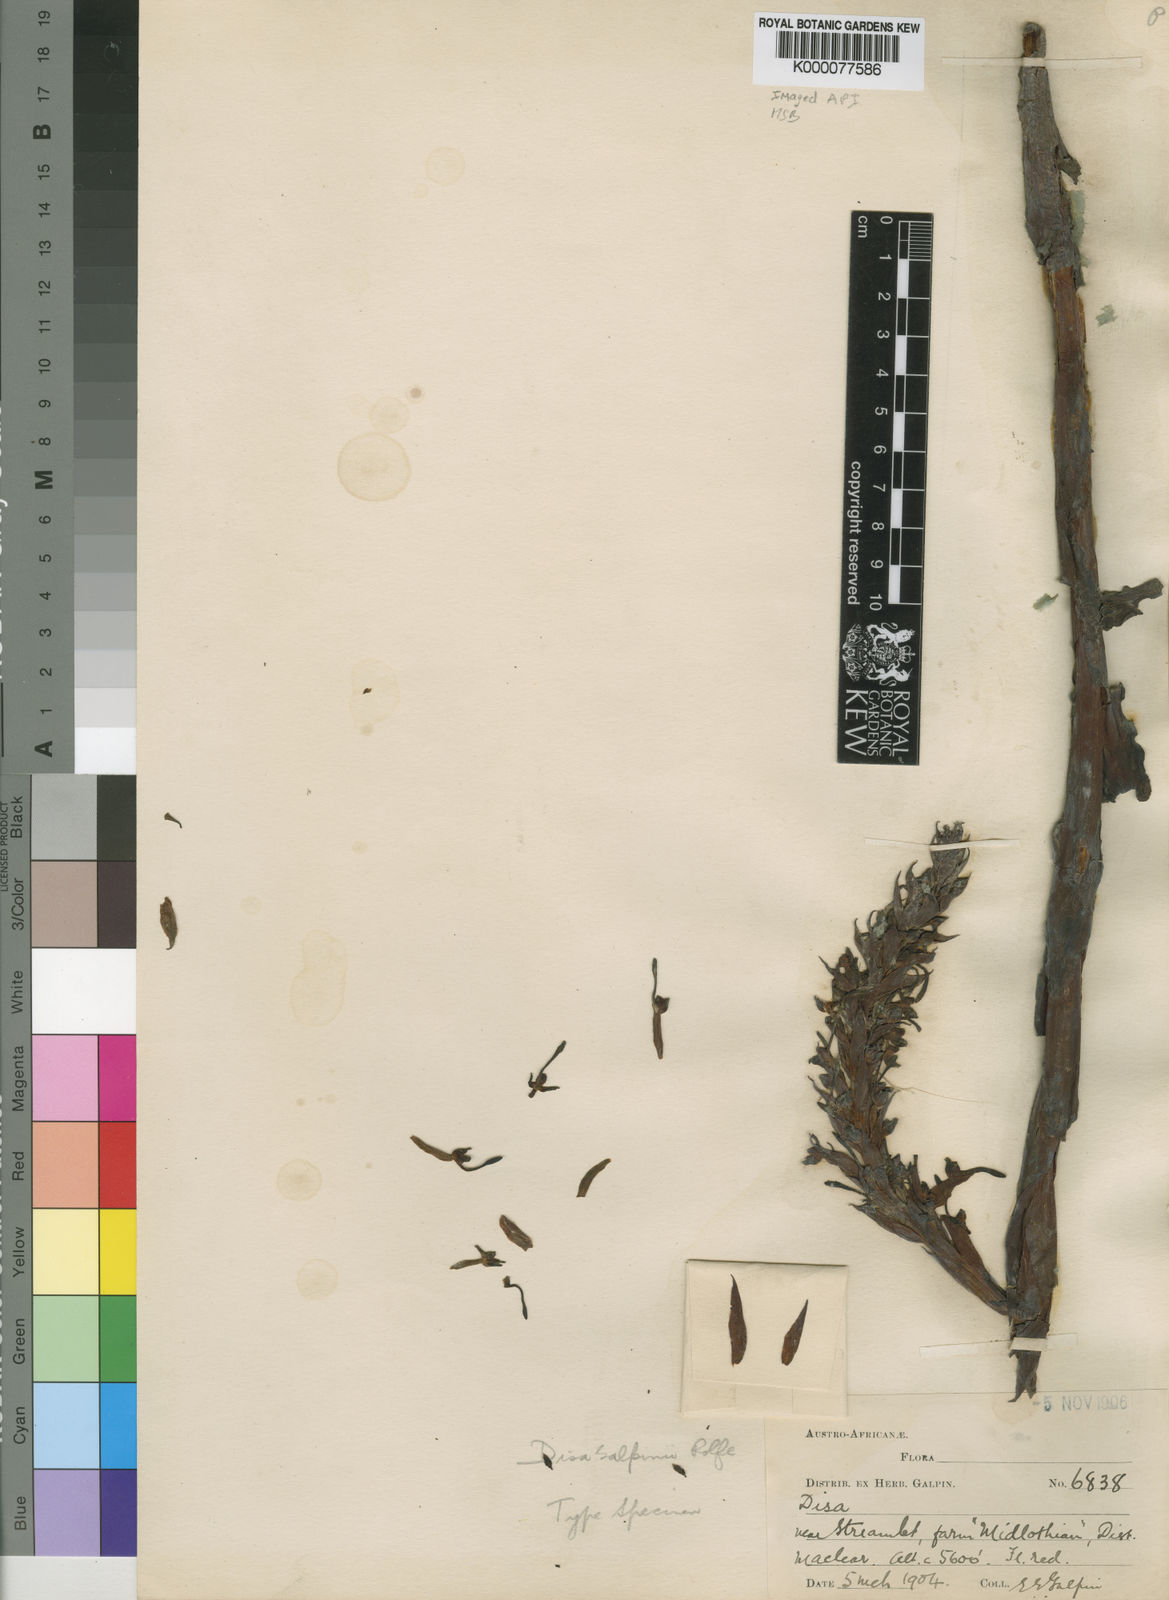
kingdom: Plantae
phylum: Tracheophyta
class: Liliopsida
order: Asparagales
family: Orchidaceae
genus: Disa
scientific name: Disa galpinii
